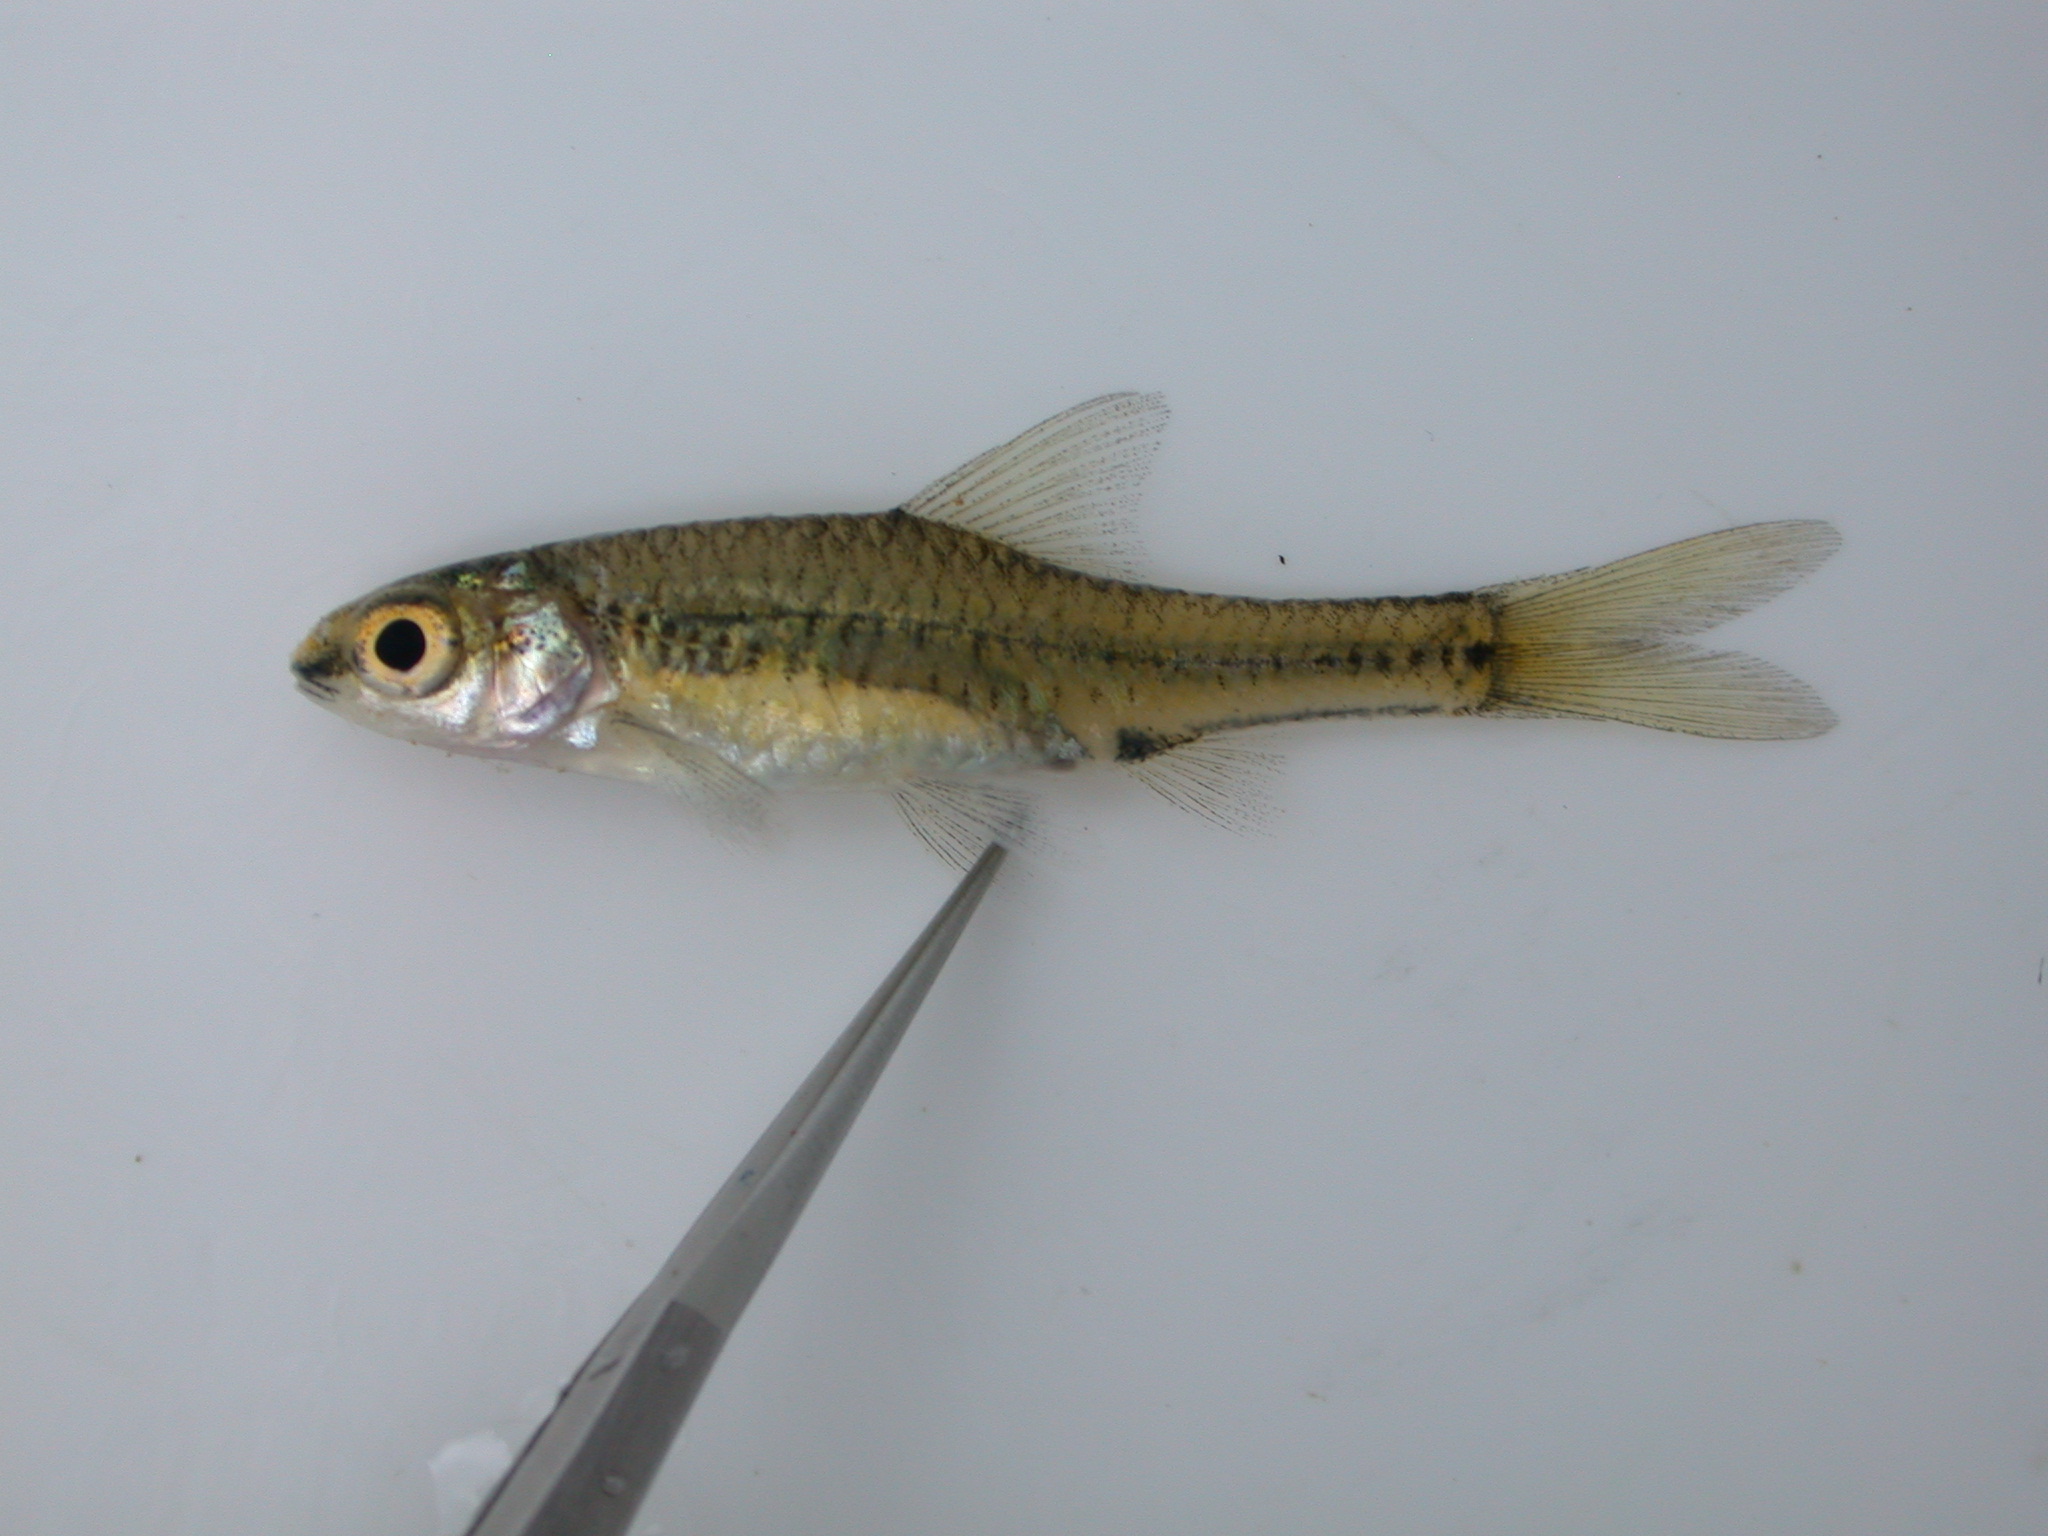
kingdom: Animalia
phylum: Chordata
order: Cypriniformes
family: Cyprinidae
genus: Barbus
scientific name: Barbus
